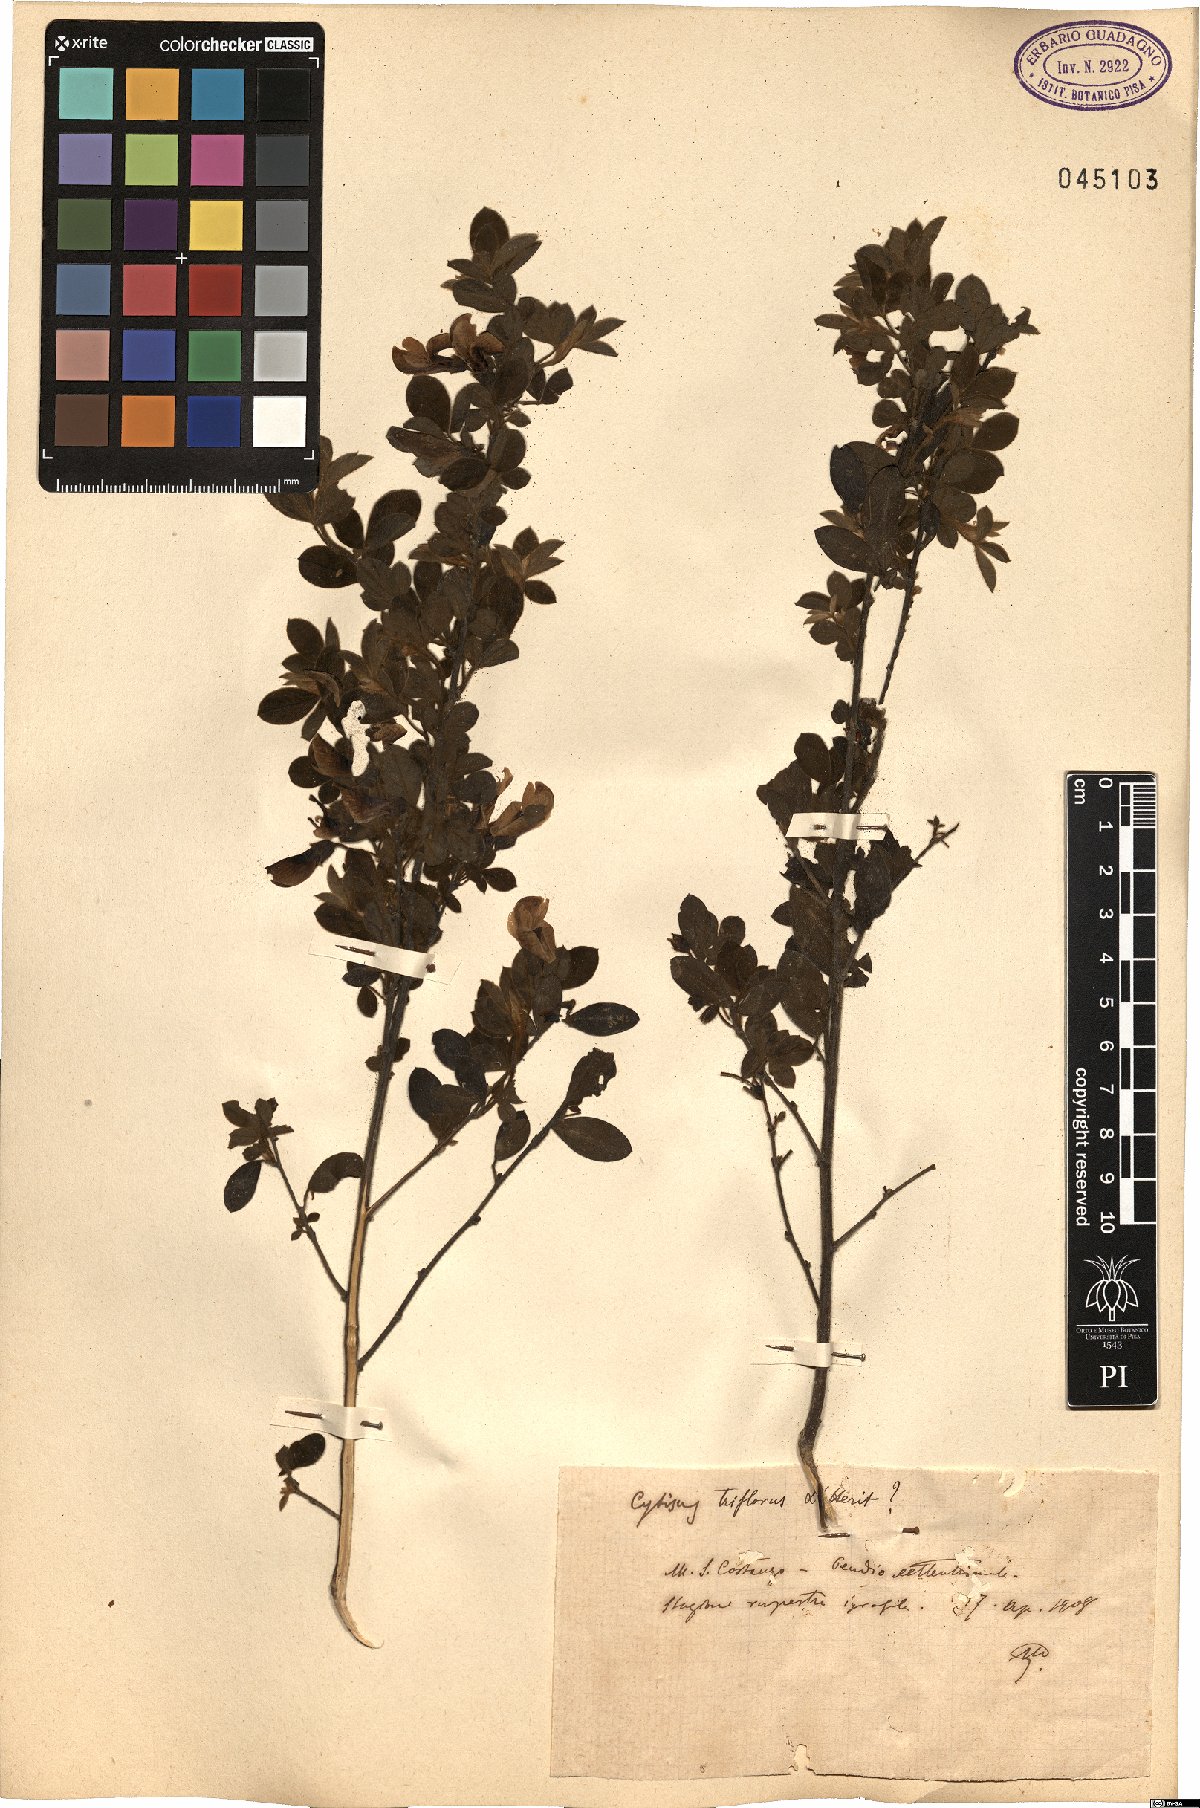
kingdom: Plantae
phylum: Tracheophyta
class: Magnoliopsida
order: Fabales
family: Fabaceae
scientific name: Fabaceae
